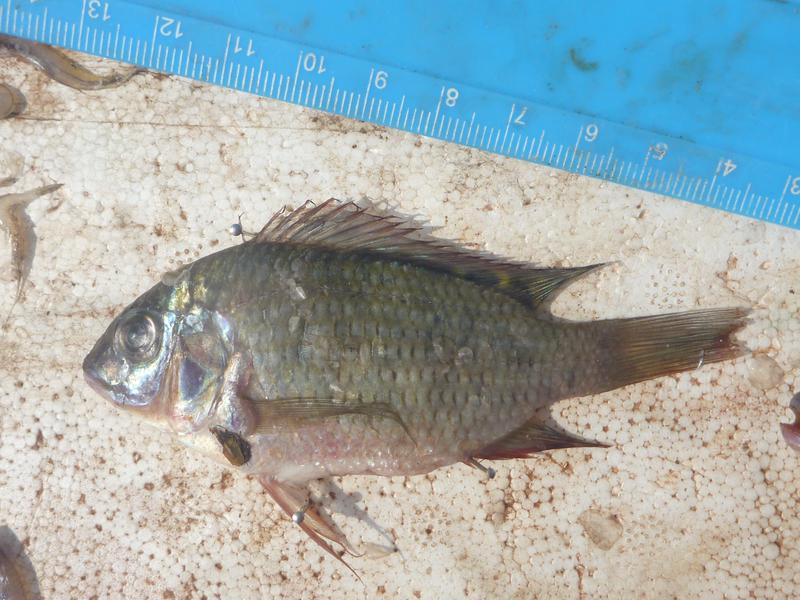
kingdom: Animalia
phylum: Chordata
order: Perciformes
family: Cichlidae
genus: Oreochromis
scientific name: Oreochromis upembae
